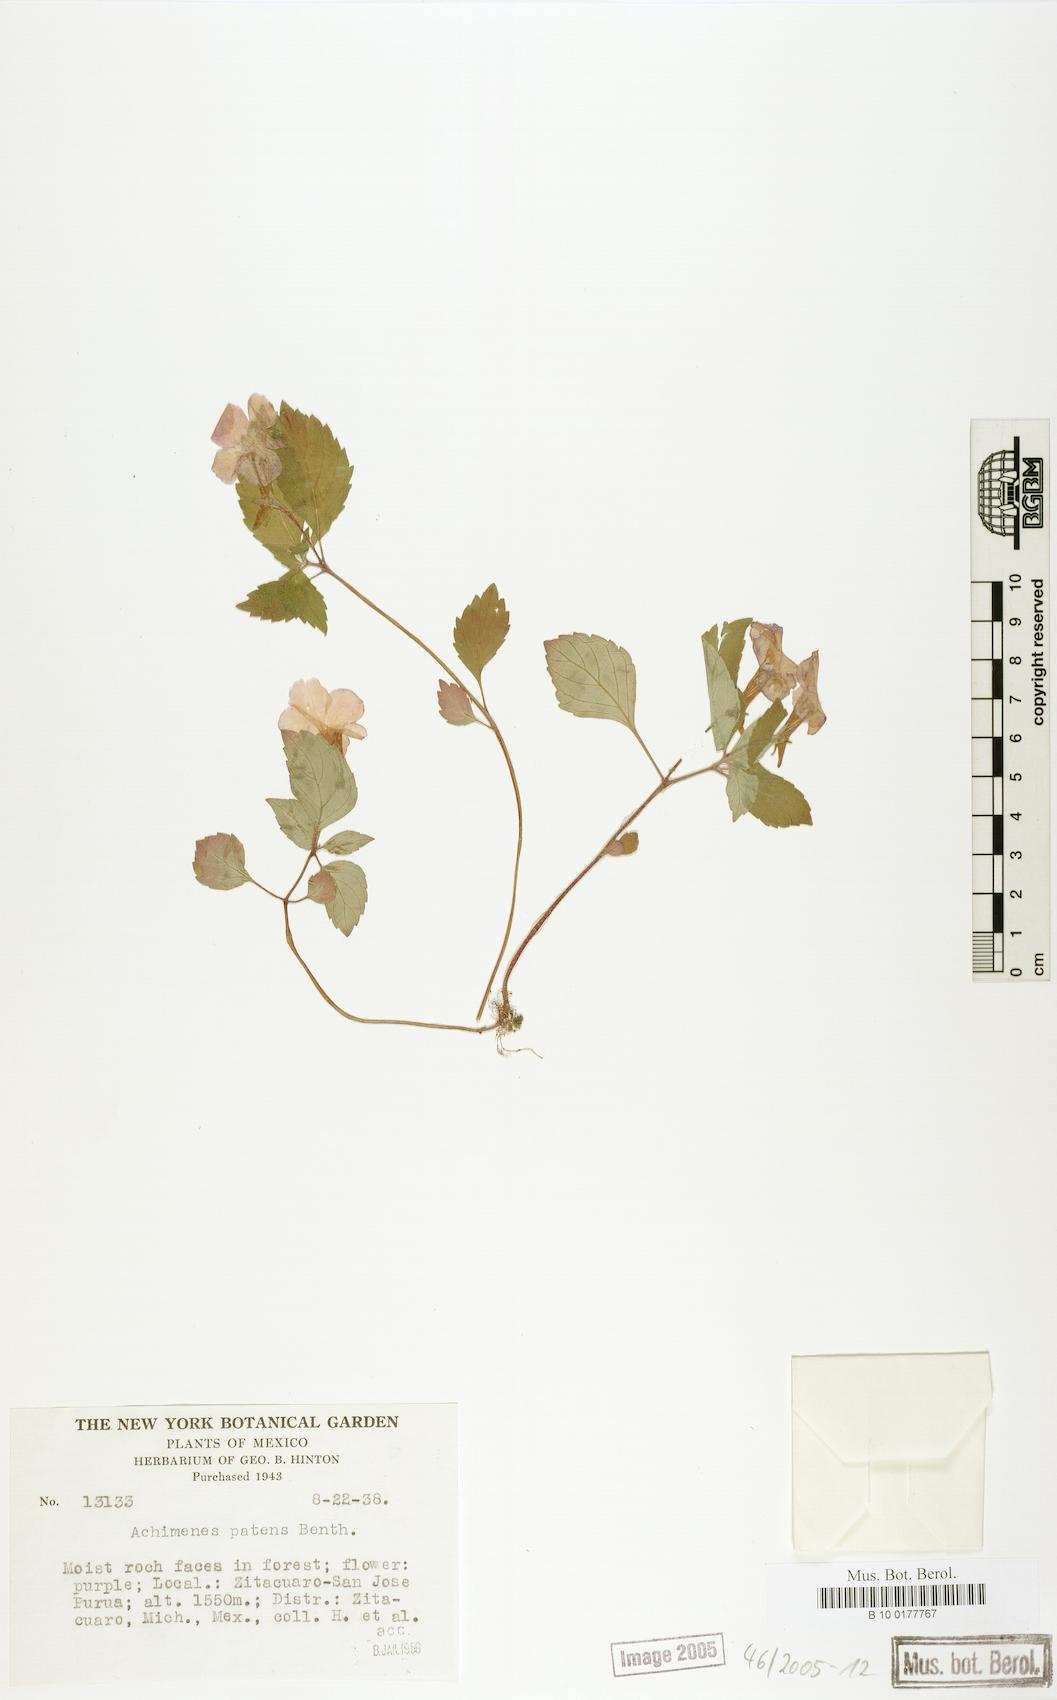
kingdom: Plantae
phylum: Tracheophyta
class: Magnoliopsida
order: Lamiales
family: Gesneriaceae
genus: Achimenes
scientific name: Achimenes patens
